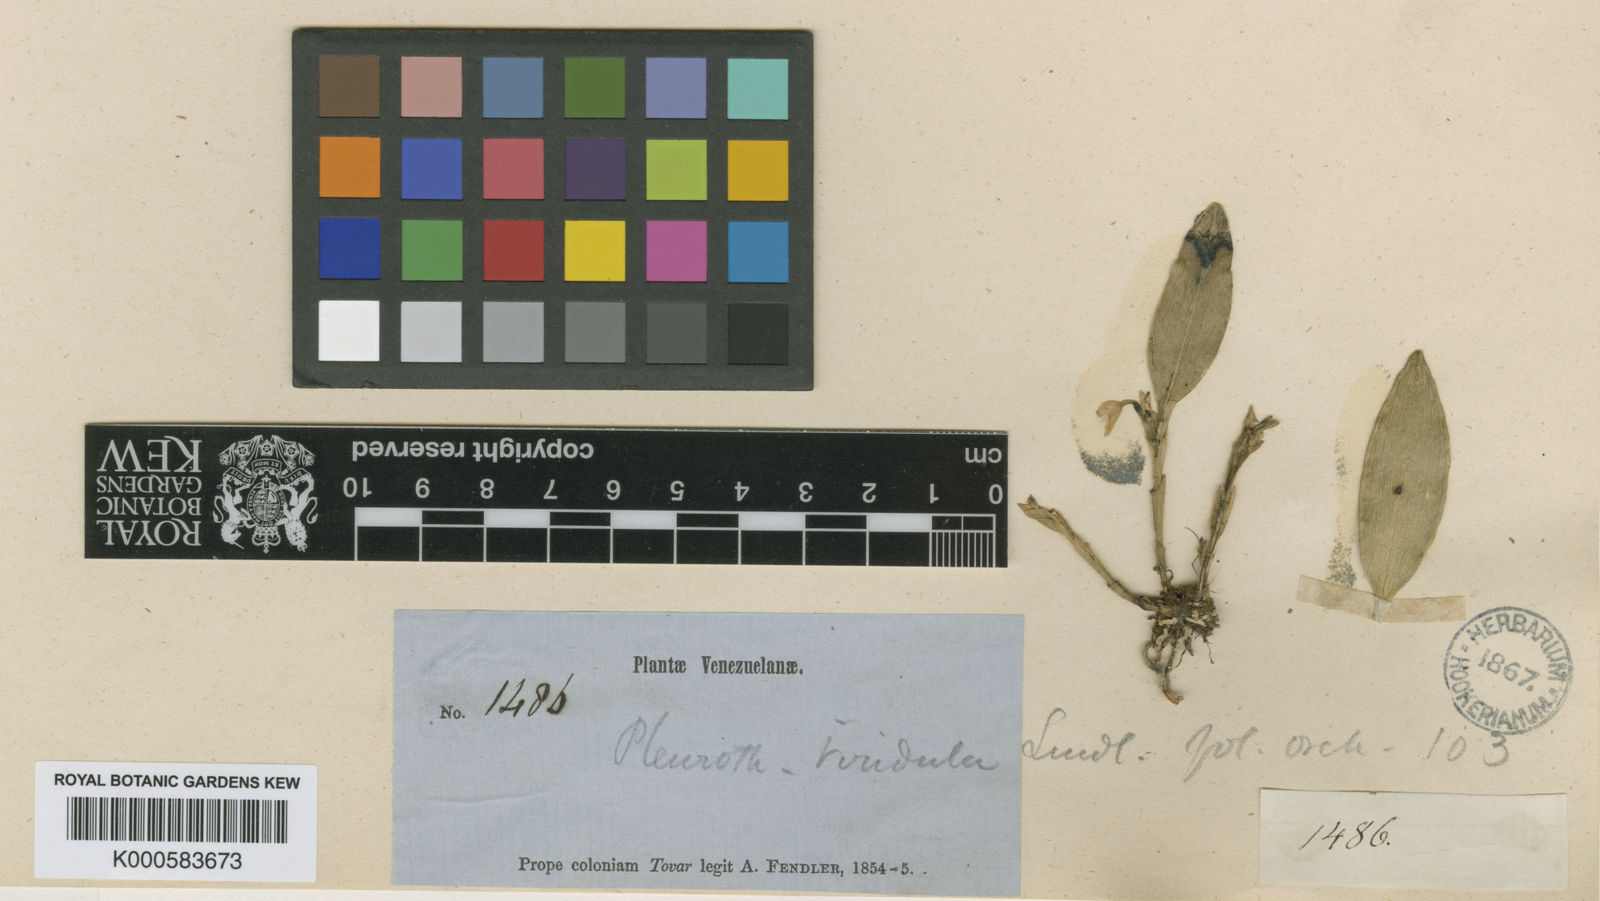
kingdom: Plantae
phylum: Tracheophyta
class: Liliopsida
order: Asparagales
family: Orchidaceae
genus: Pleurothallopsis
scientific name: Pleurothallopsis tubulosa
